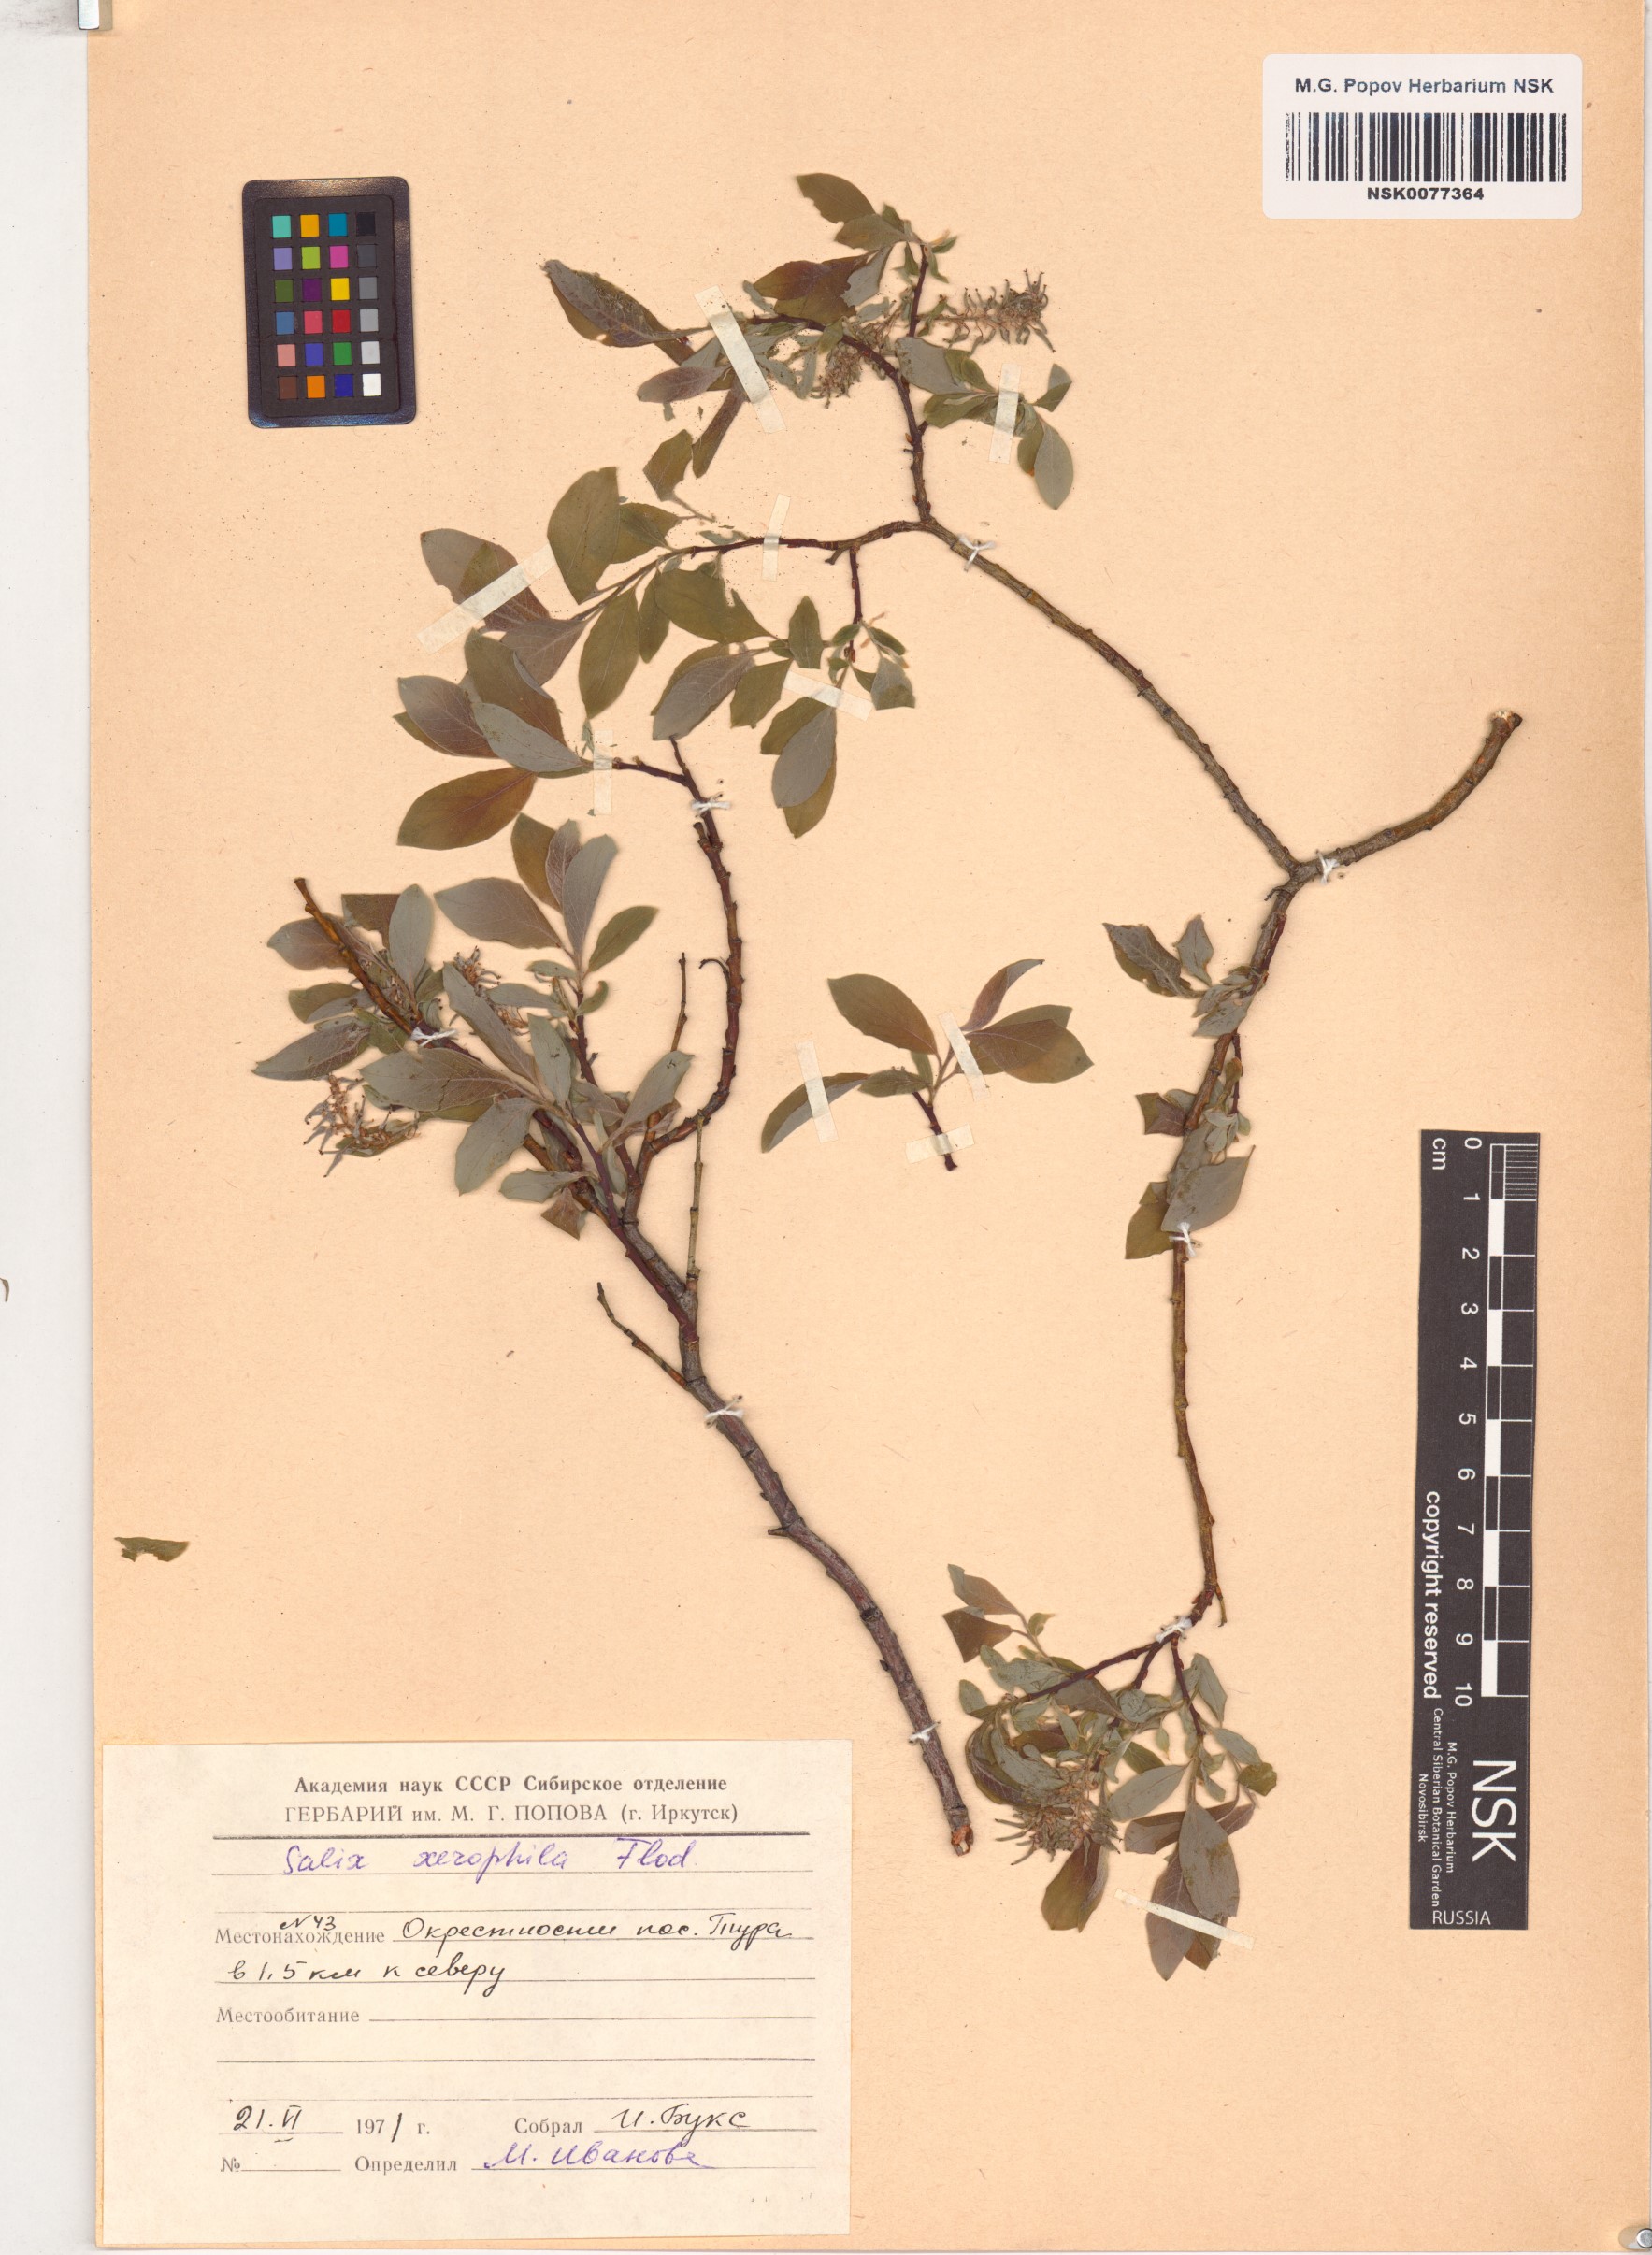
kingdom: Plantae
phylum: Tracheophyta
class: Magnoliopsida
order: Malpighiales
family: Salicaceae
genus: Salix
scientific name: Salix bebbiana
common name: Bebb's willow
